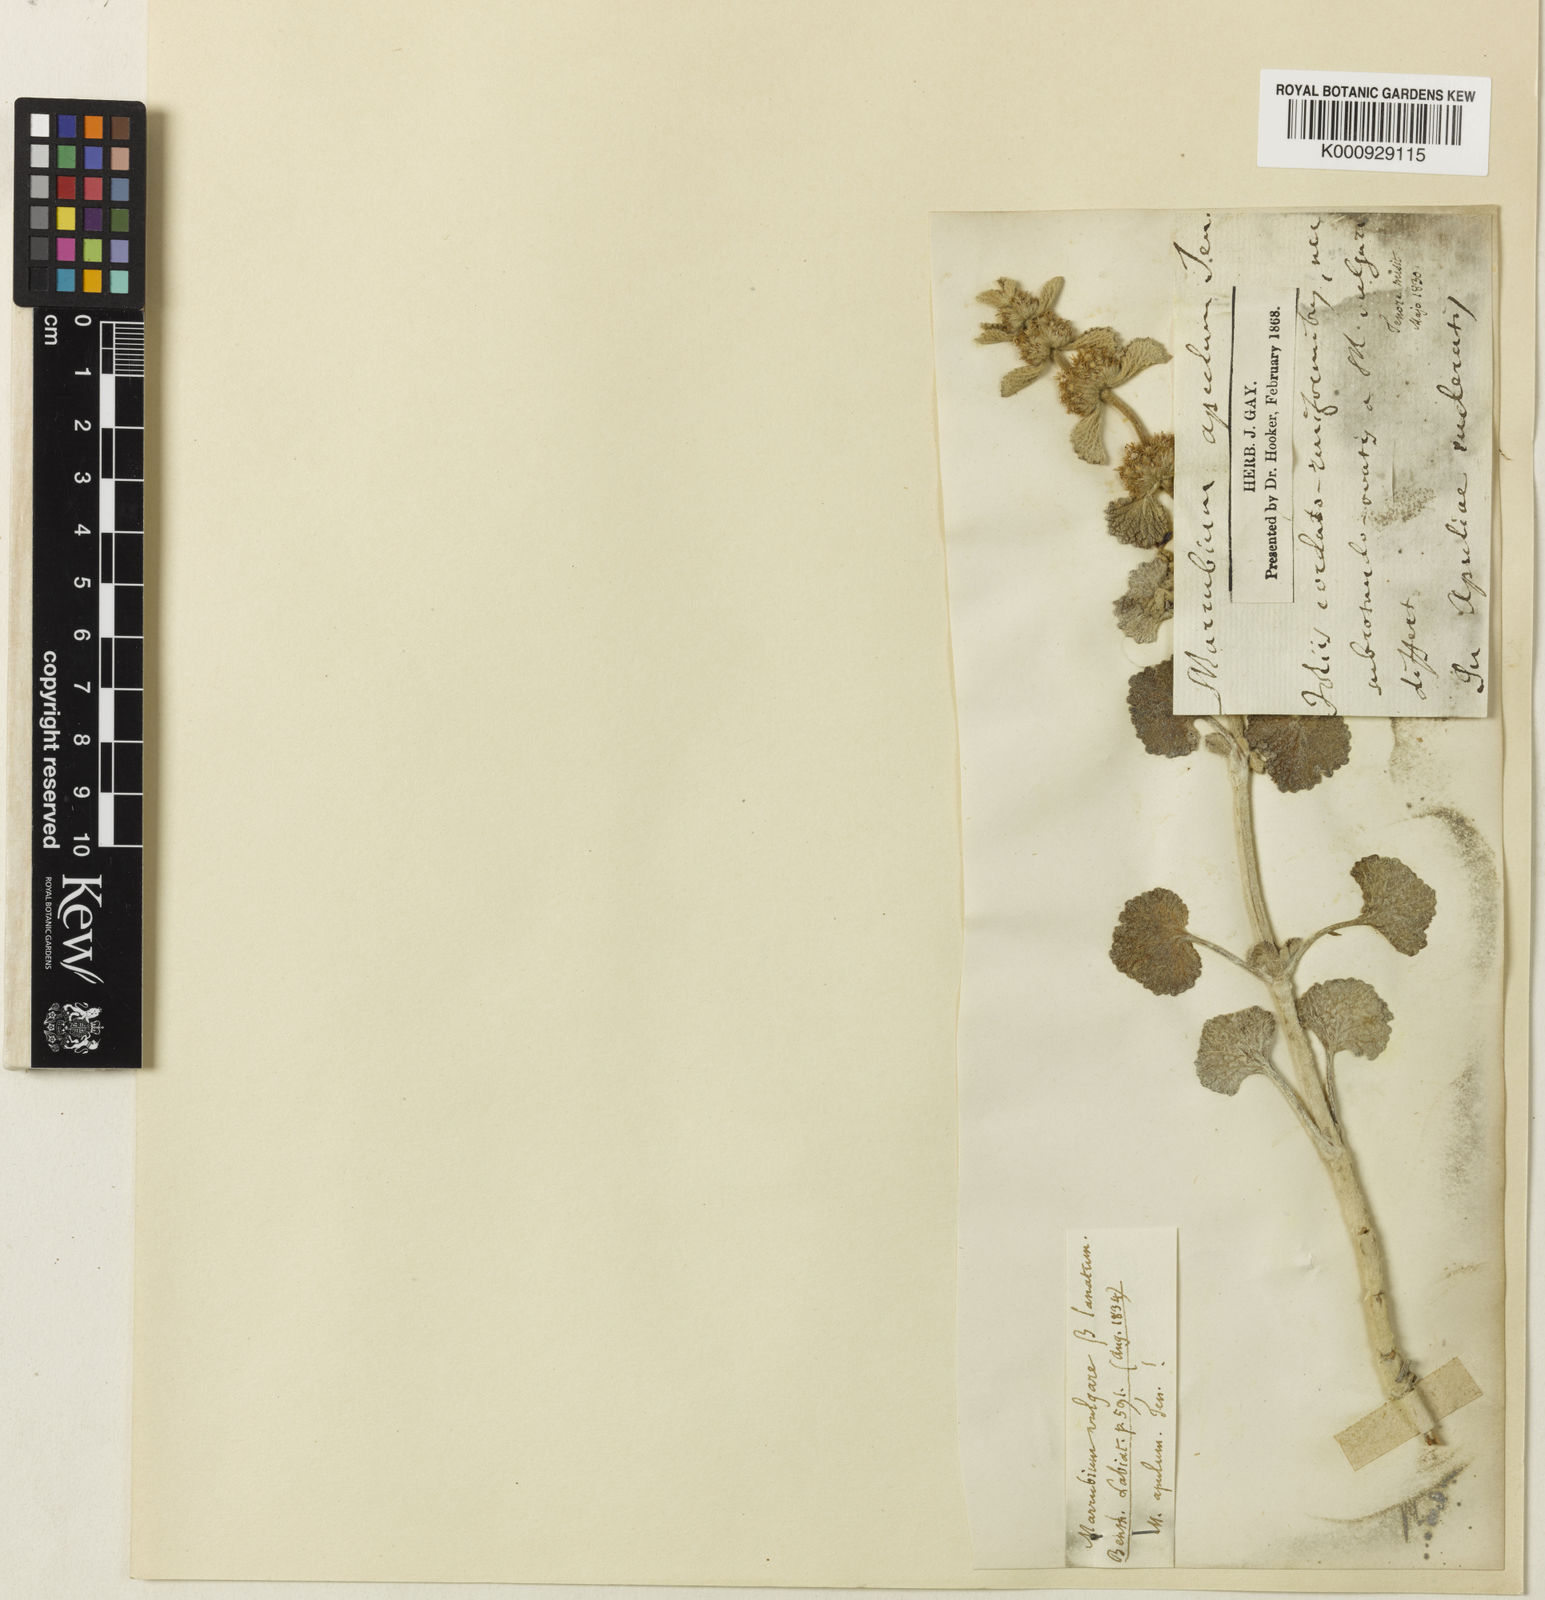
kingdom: Plantae
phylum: Tracheophyta
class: Magnoliopsida
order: Lamiales
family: Lamiaceae
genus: Marrubium
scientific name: Marrubium vulgare
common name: Horehound
